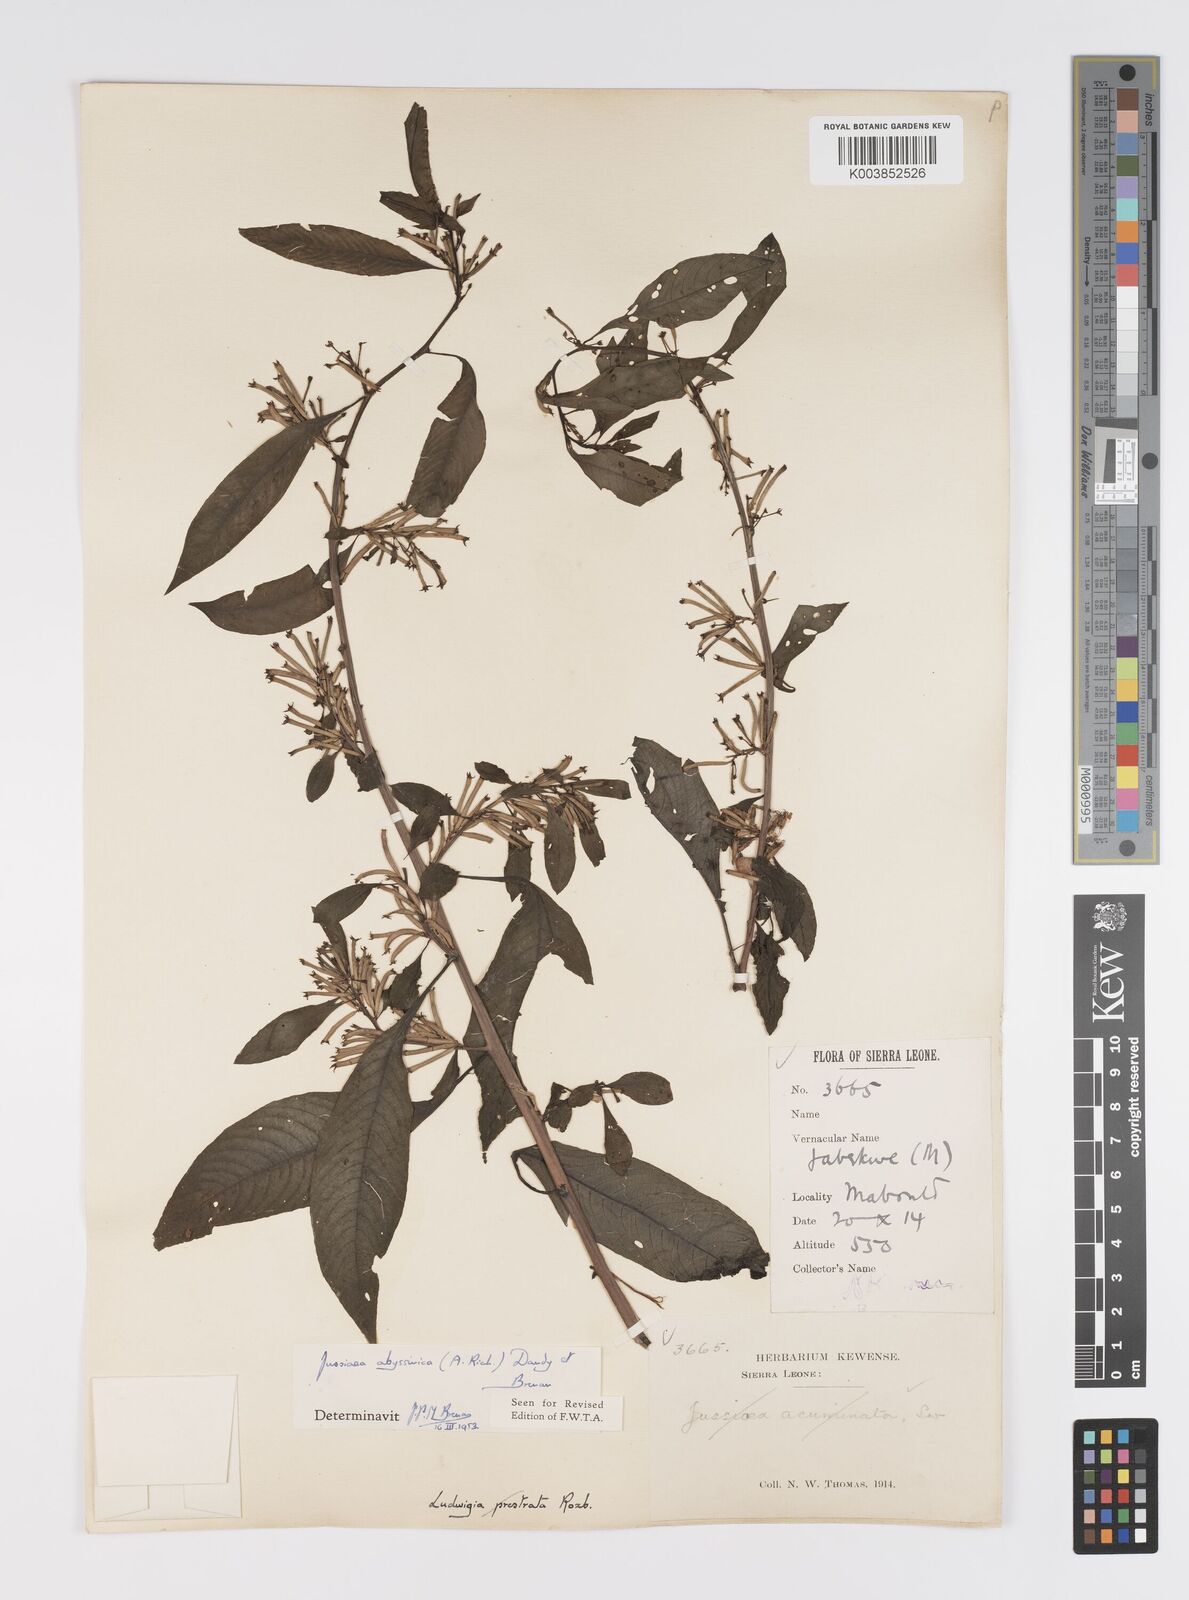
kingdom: Plantae
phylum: Tracheophyta
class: Magnoliopsida
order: Myrtales
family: Onagraceae
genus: Ludwigia
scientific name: Ludwigia abyssinica
